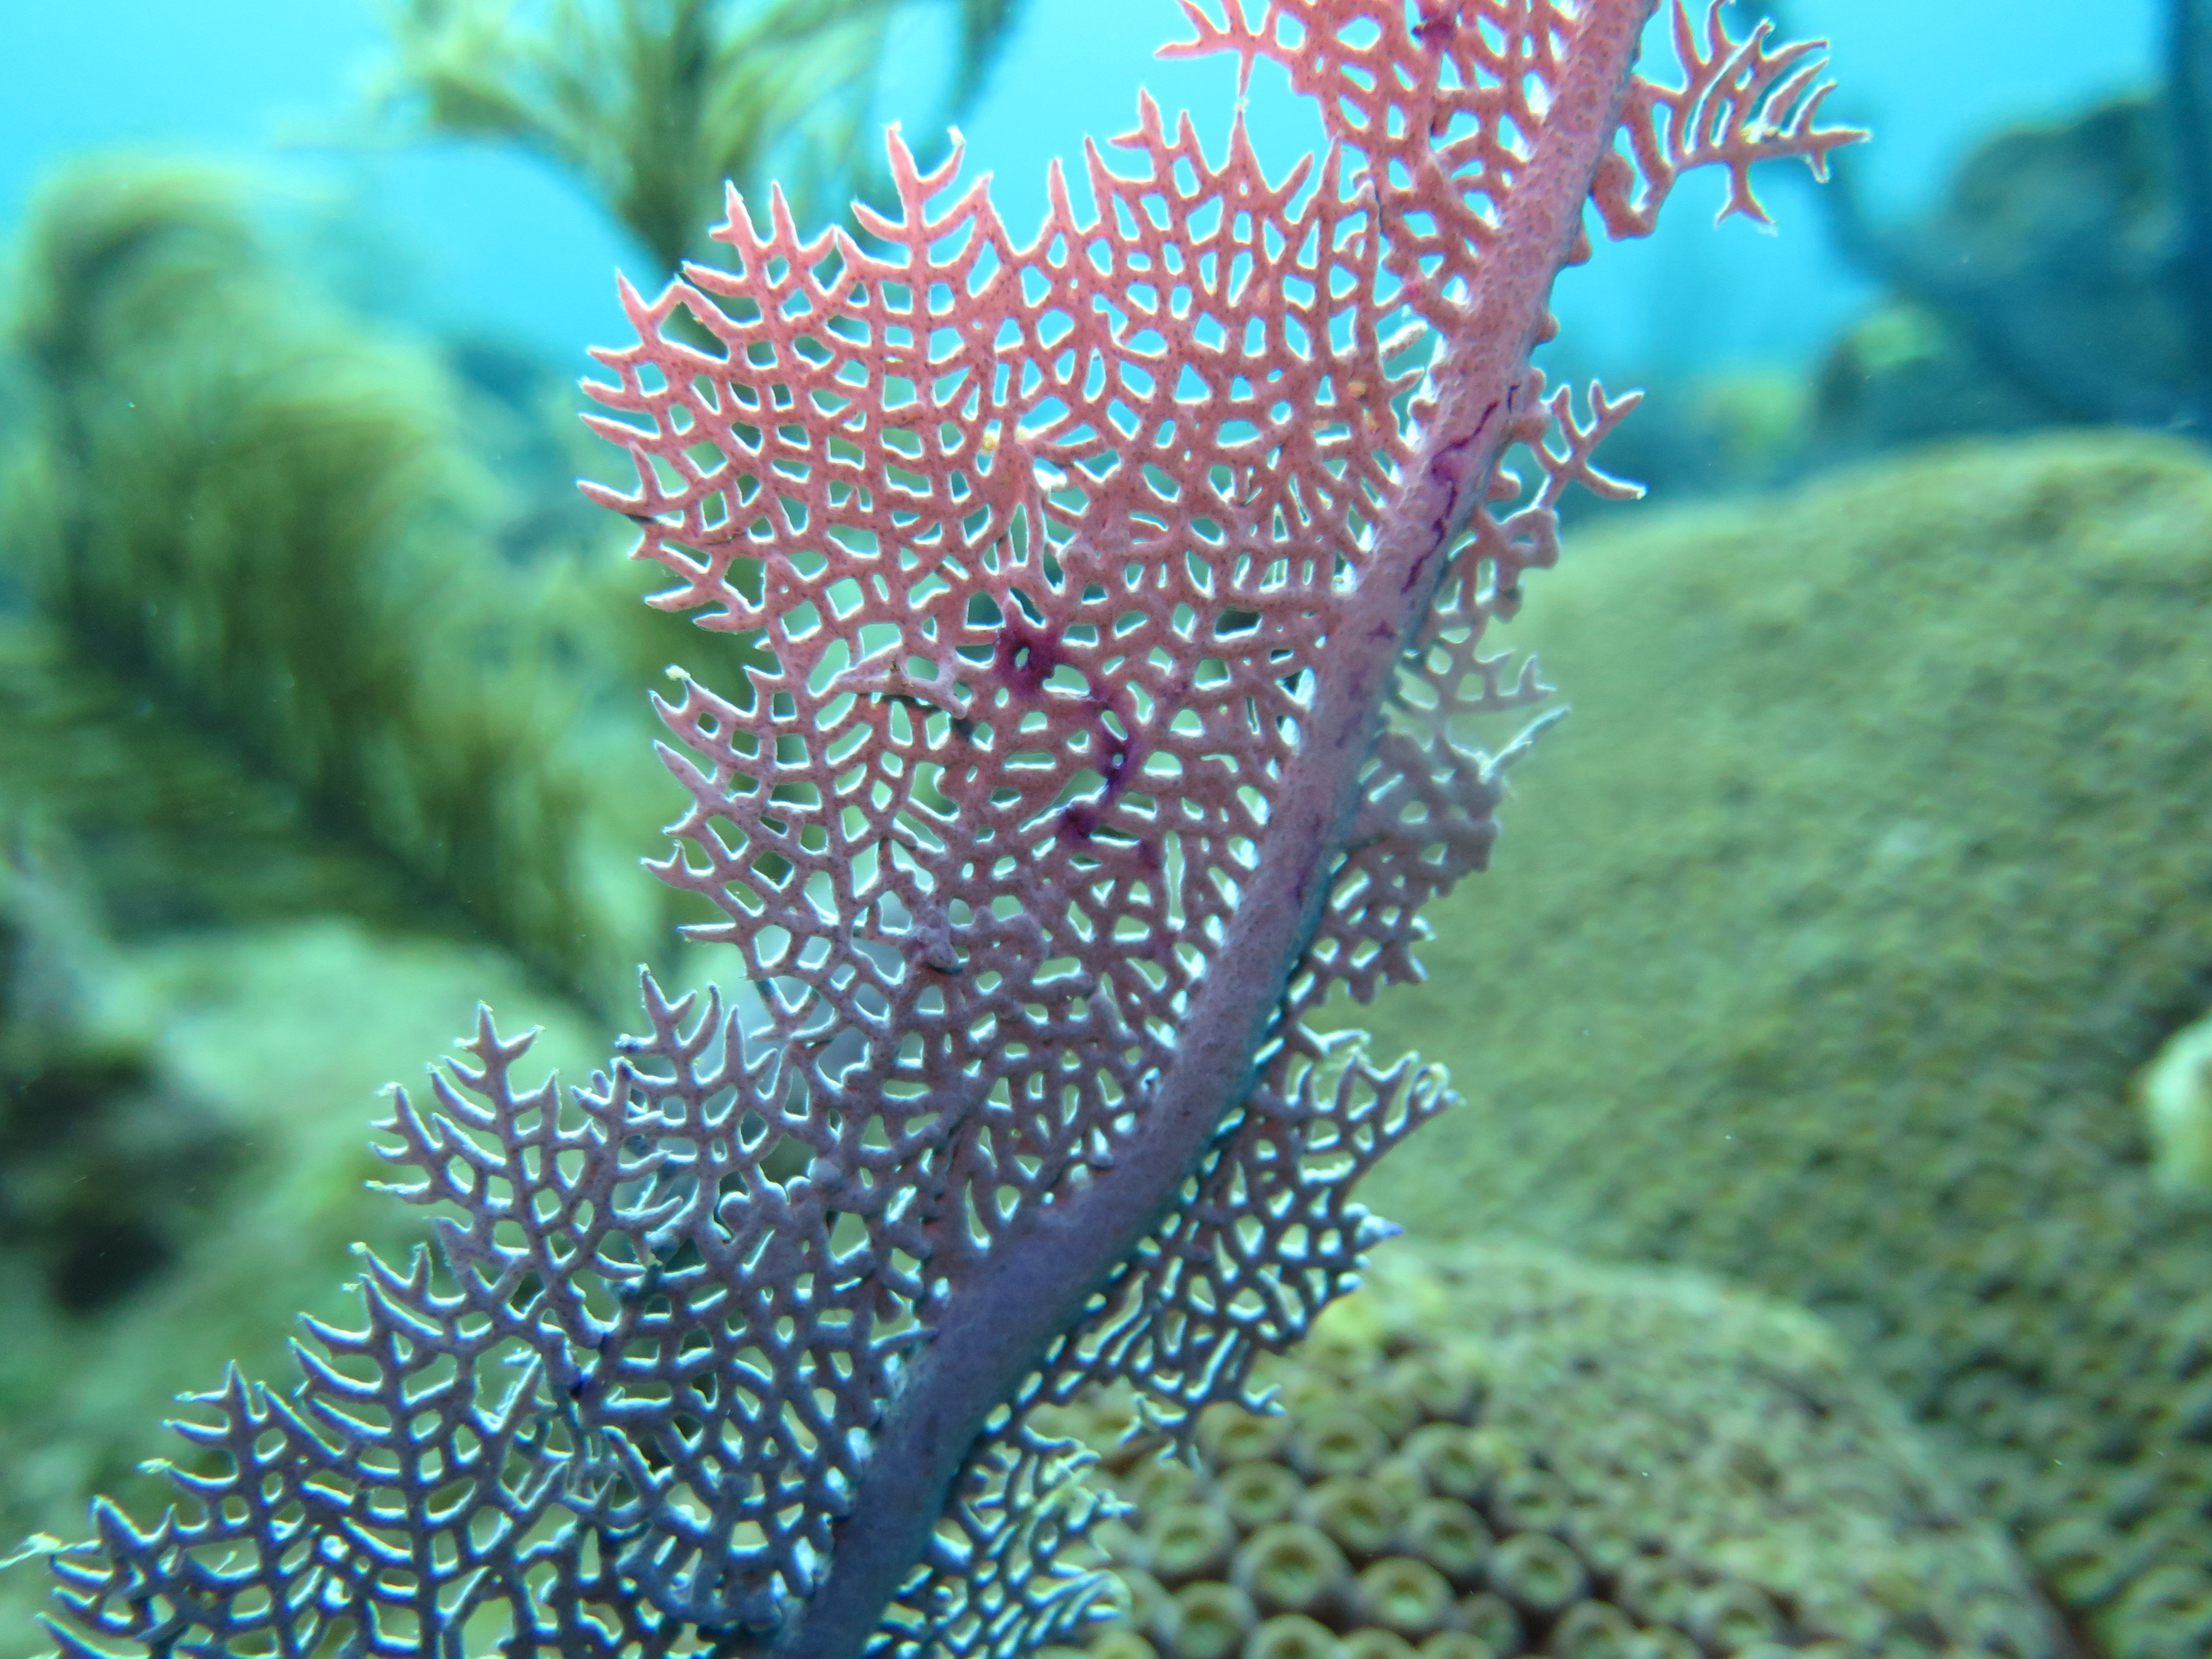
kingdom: Animalia
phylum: Cnidaria
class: Anthozoa
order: Malacalcyonacea
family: Gorgoniidae
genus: Gorgonia
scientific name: Gorgonia ventalina
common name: Common sea fan
